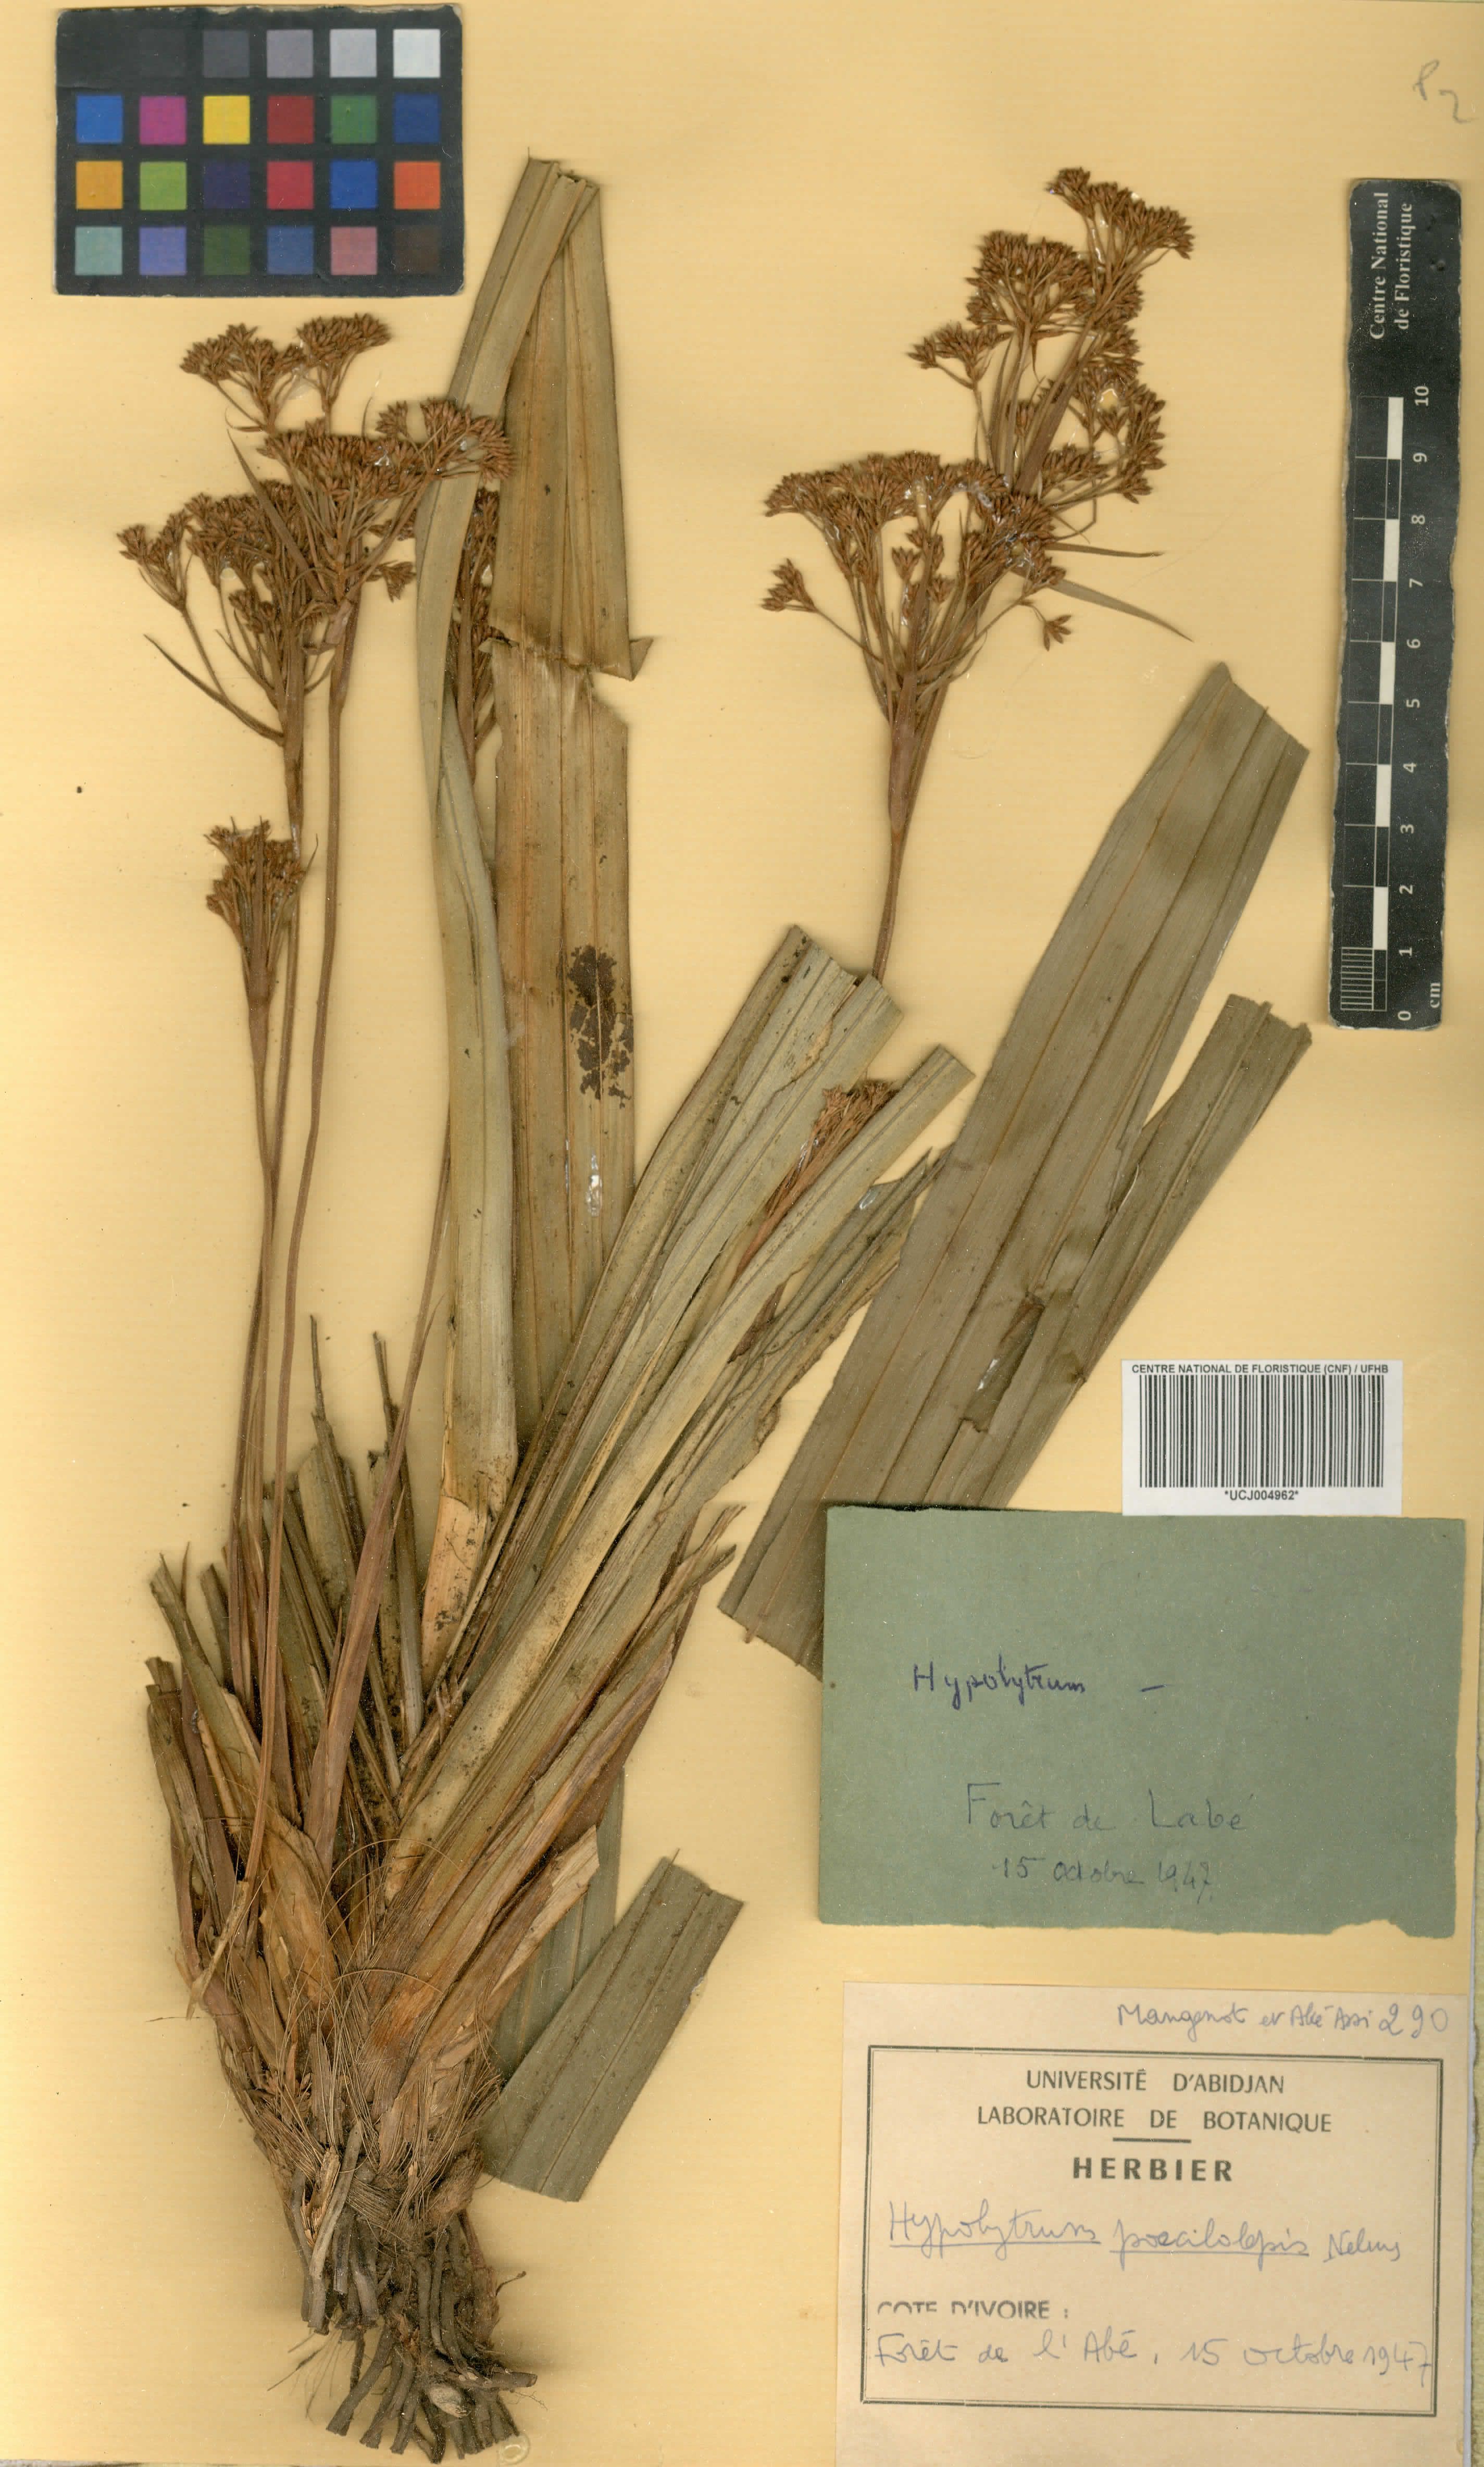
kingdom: Plantae
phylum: Tracheophyta
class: Liliopsida
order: Poales
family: Cyperaceae
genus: Hypolytrum
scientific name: Hypolytrum poecilolepis
